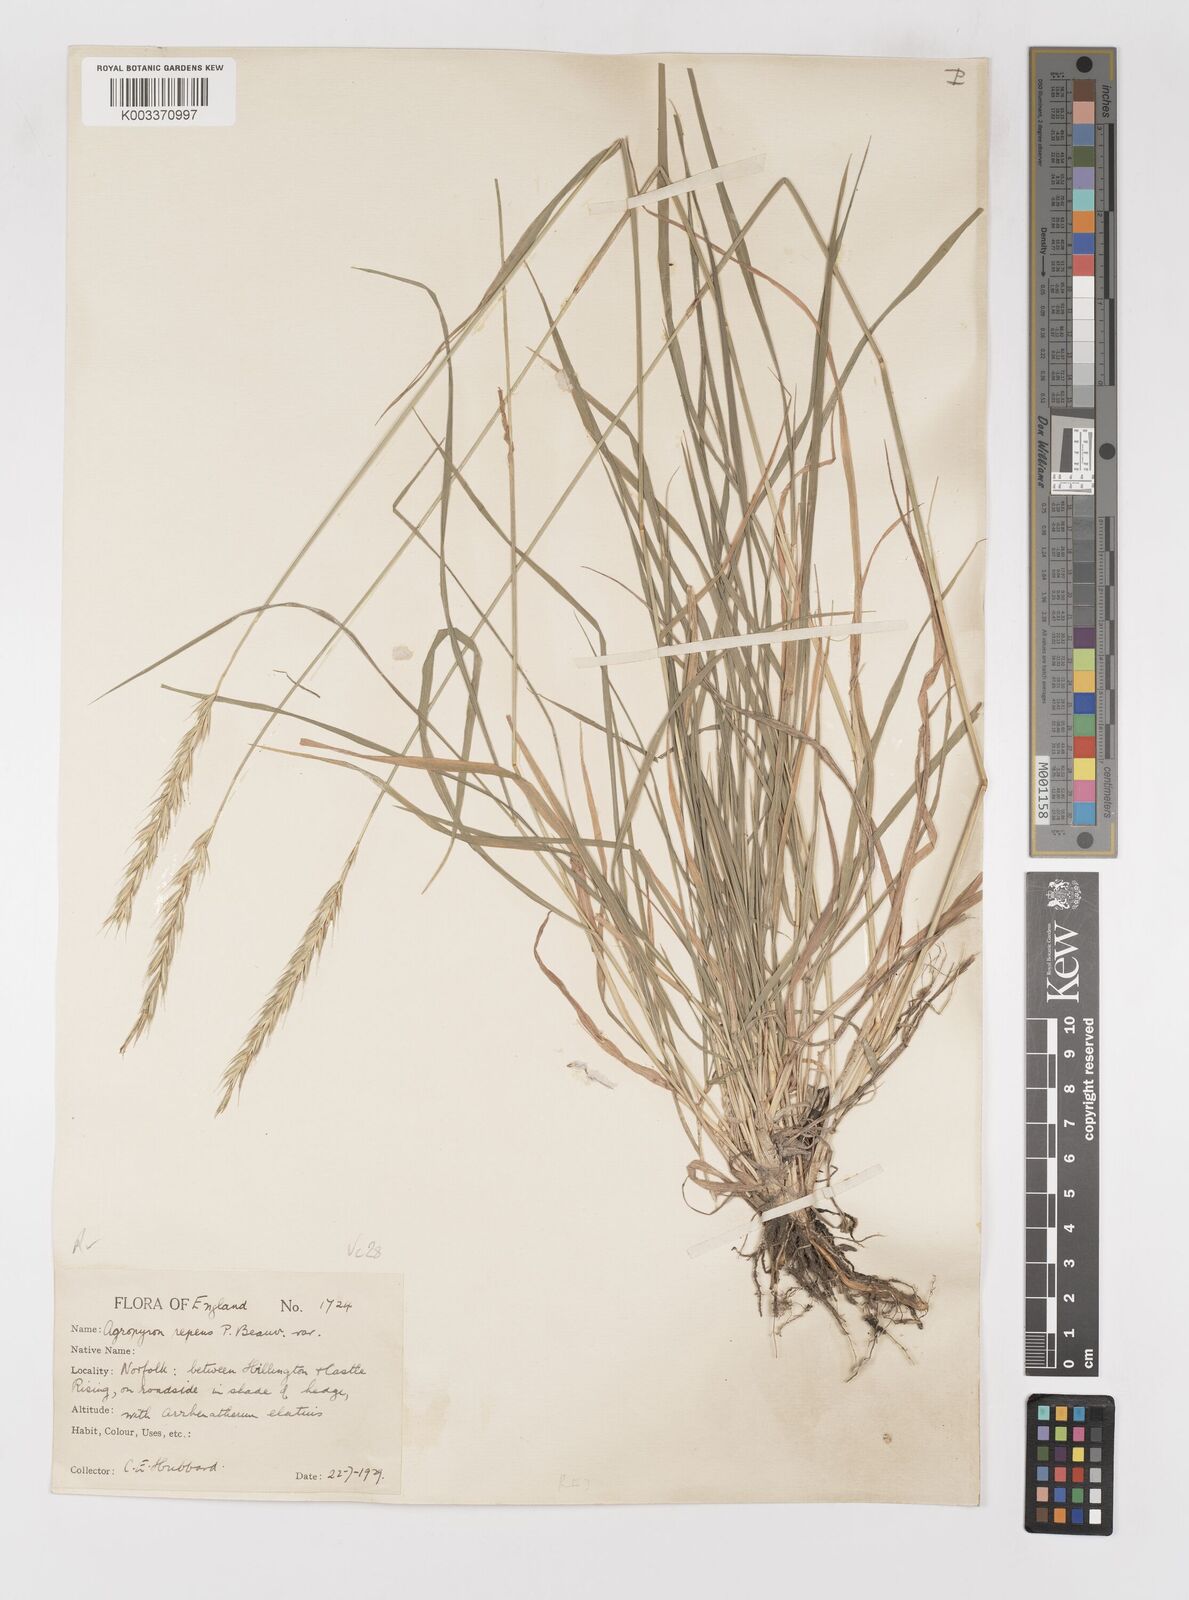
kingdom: Plantae
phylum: Tracheophyta
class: Liliopsida
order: Poales
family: Poaceae
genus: Elymus
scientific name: Elymus repens
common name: Quackgrass
